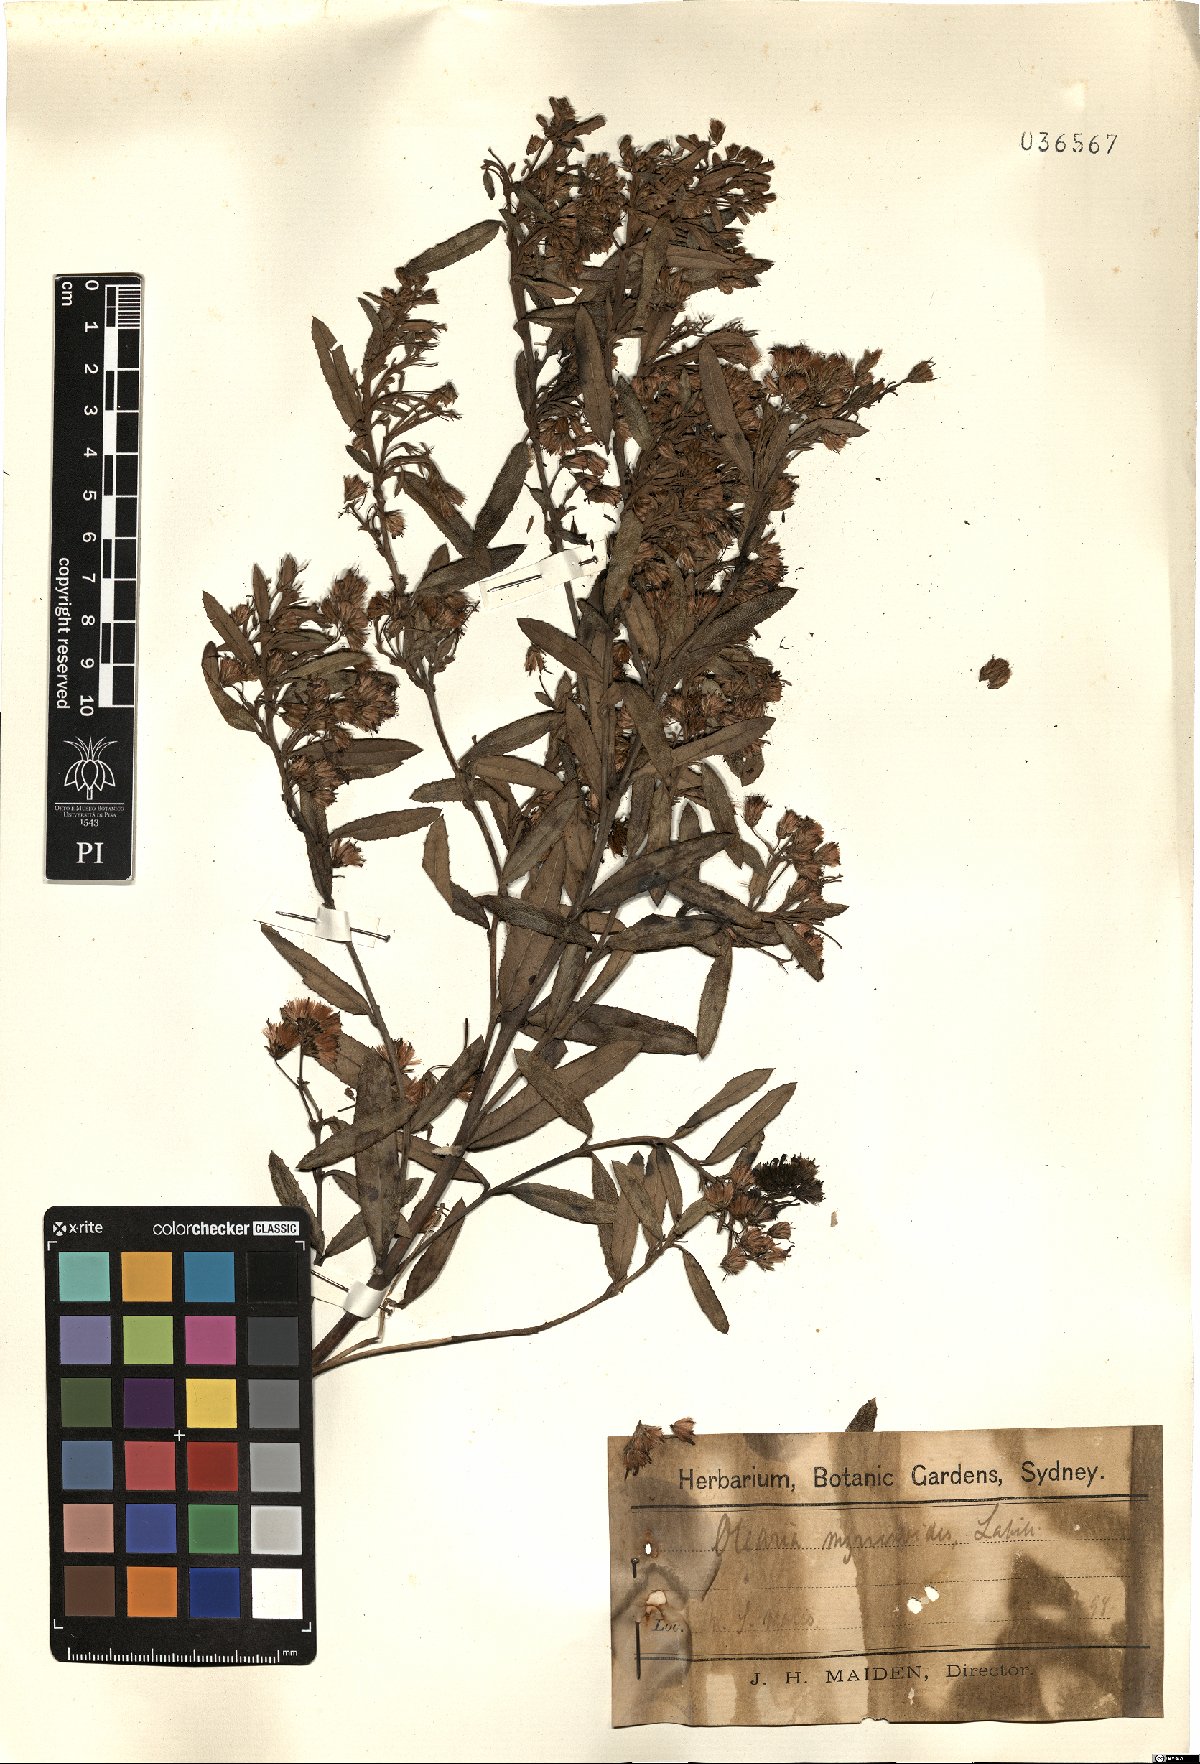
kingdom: Plantae
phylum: Tracheophyta
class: Magnoliopsida
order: Asterales
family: Asteraceae
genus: Olearia
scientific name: Olearia myrsinoides
